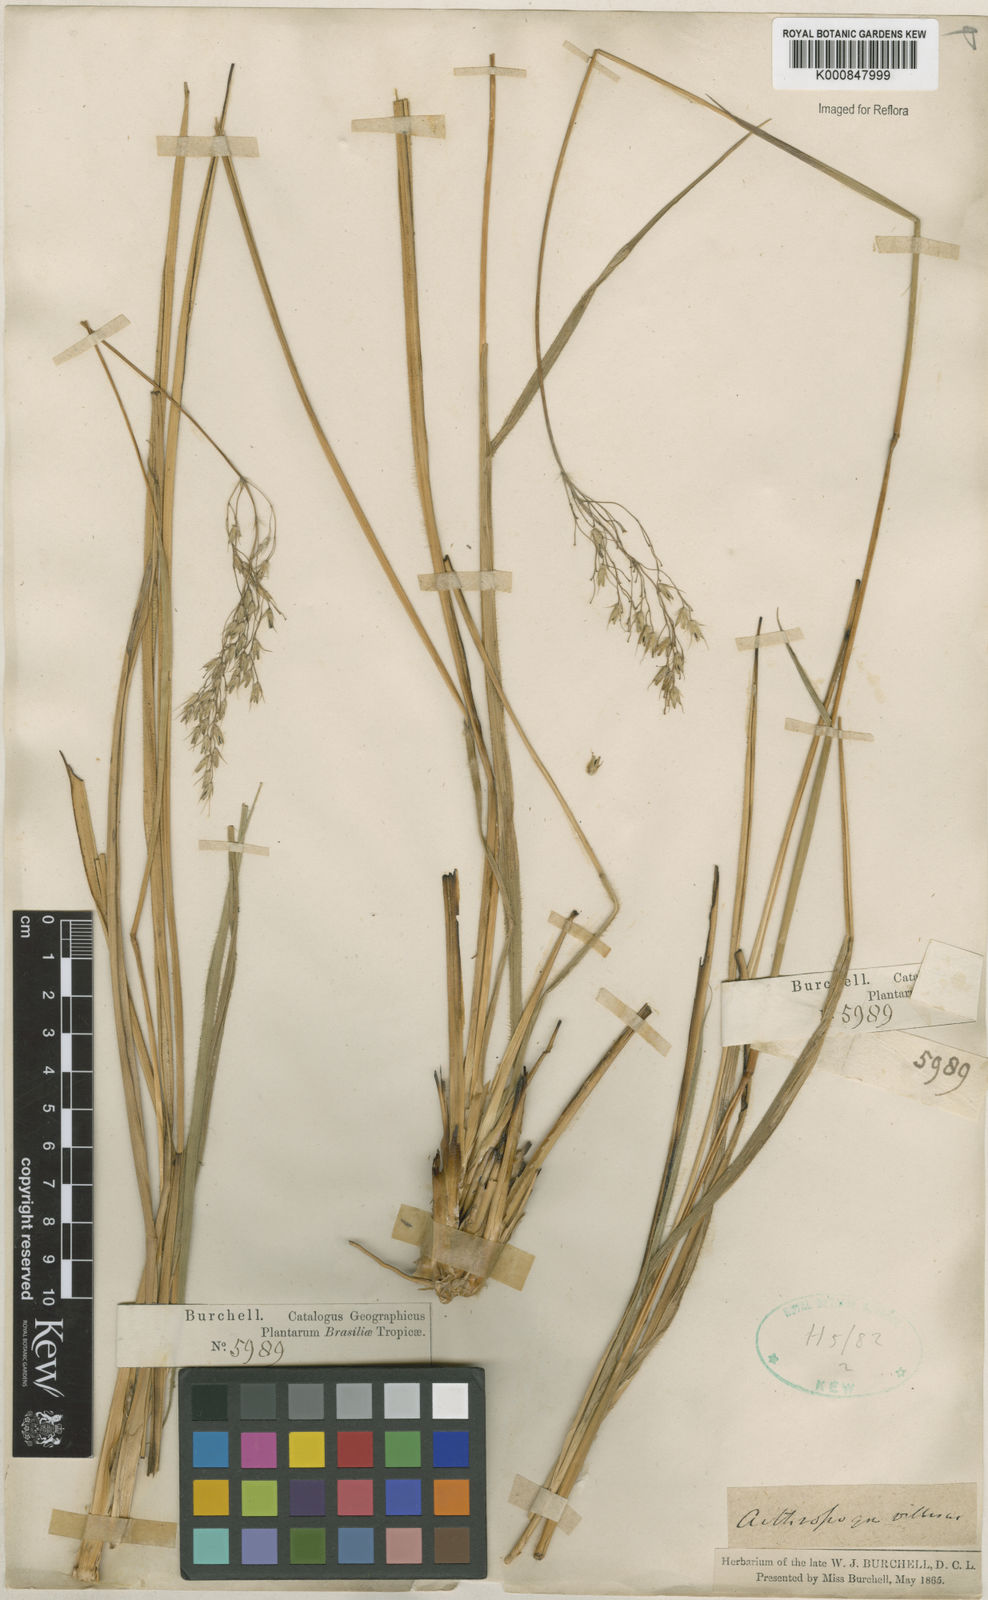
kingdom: Plantae
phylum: Tracheophyta
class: Liliopsida
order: Poales
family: Poaceae
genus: Arthropogon
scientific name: Arthropogon villosus
